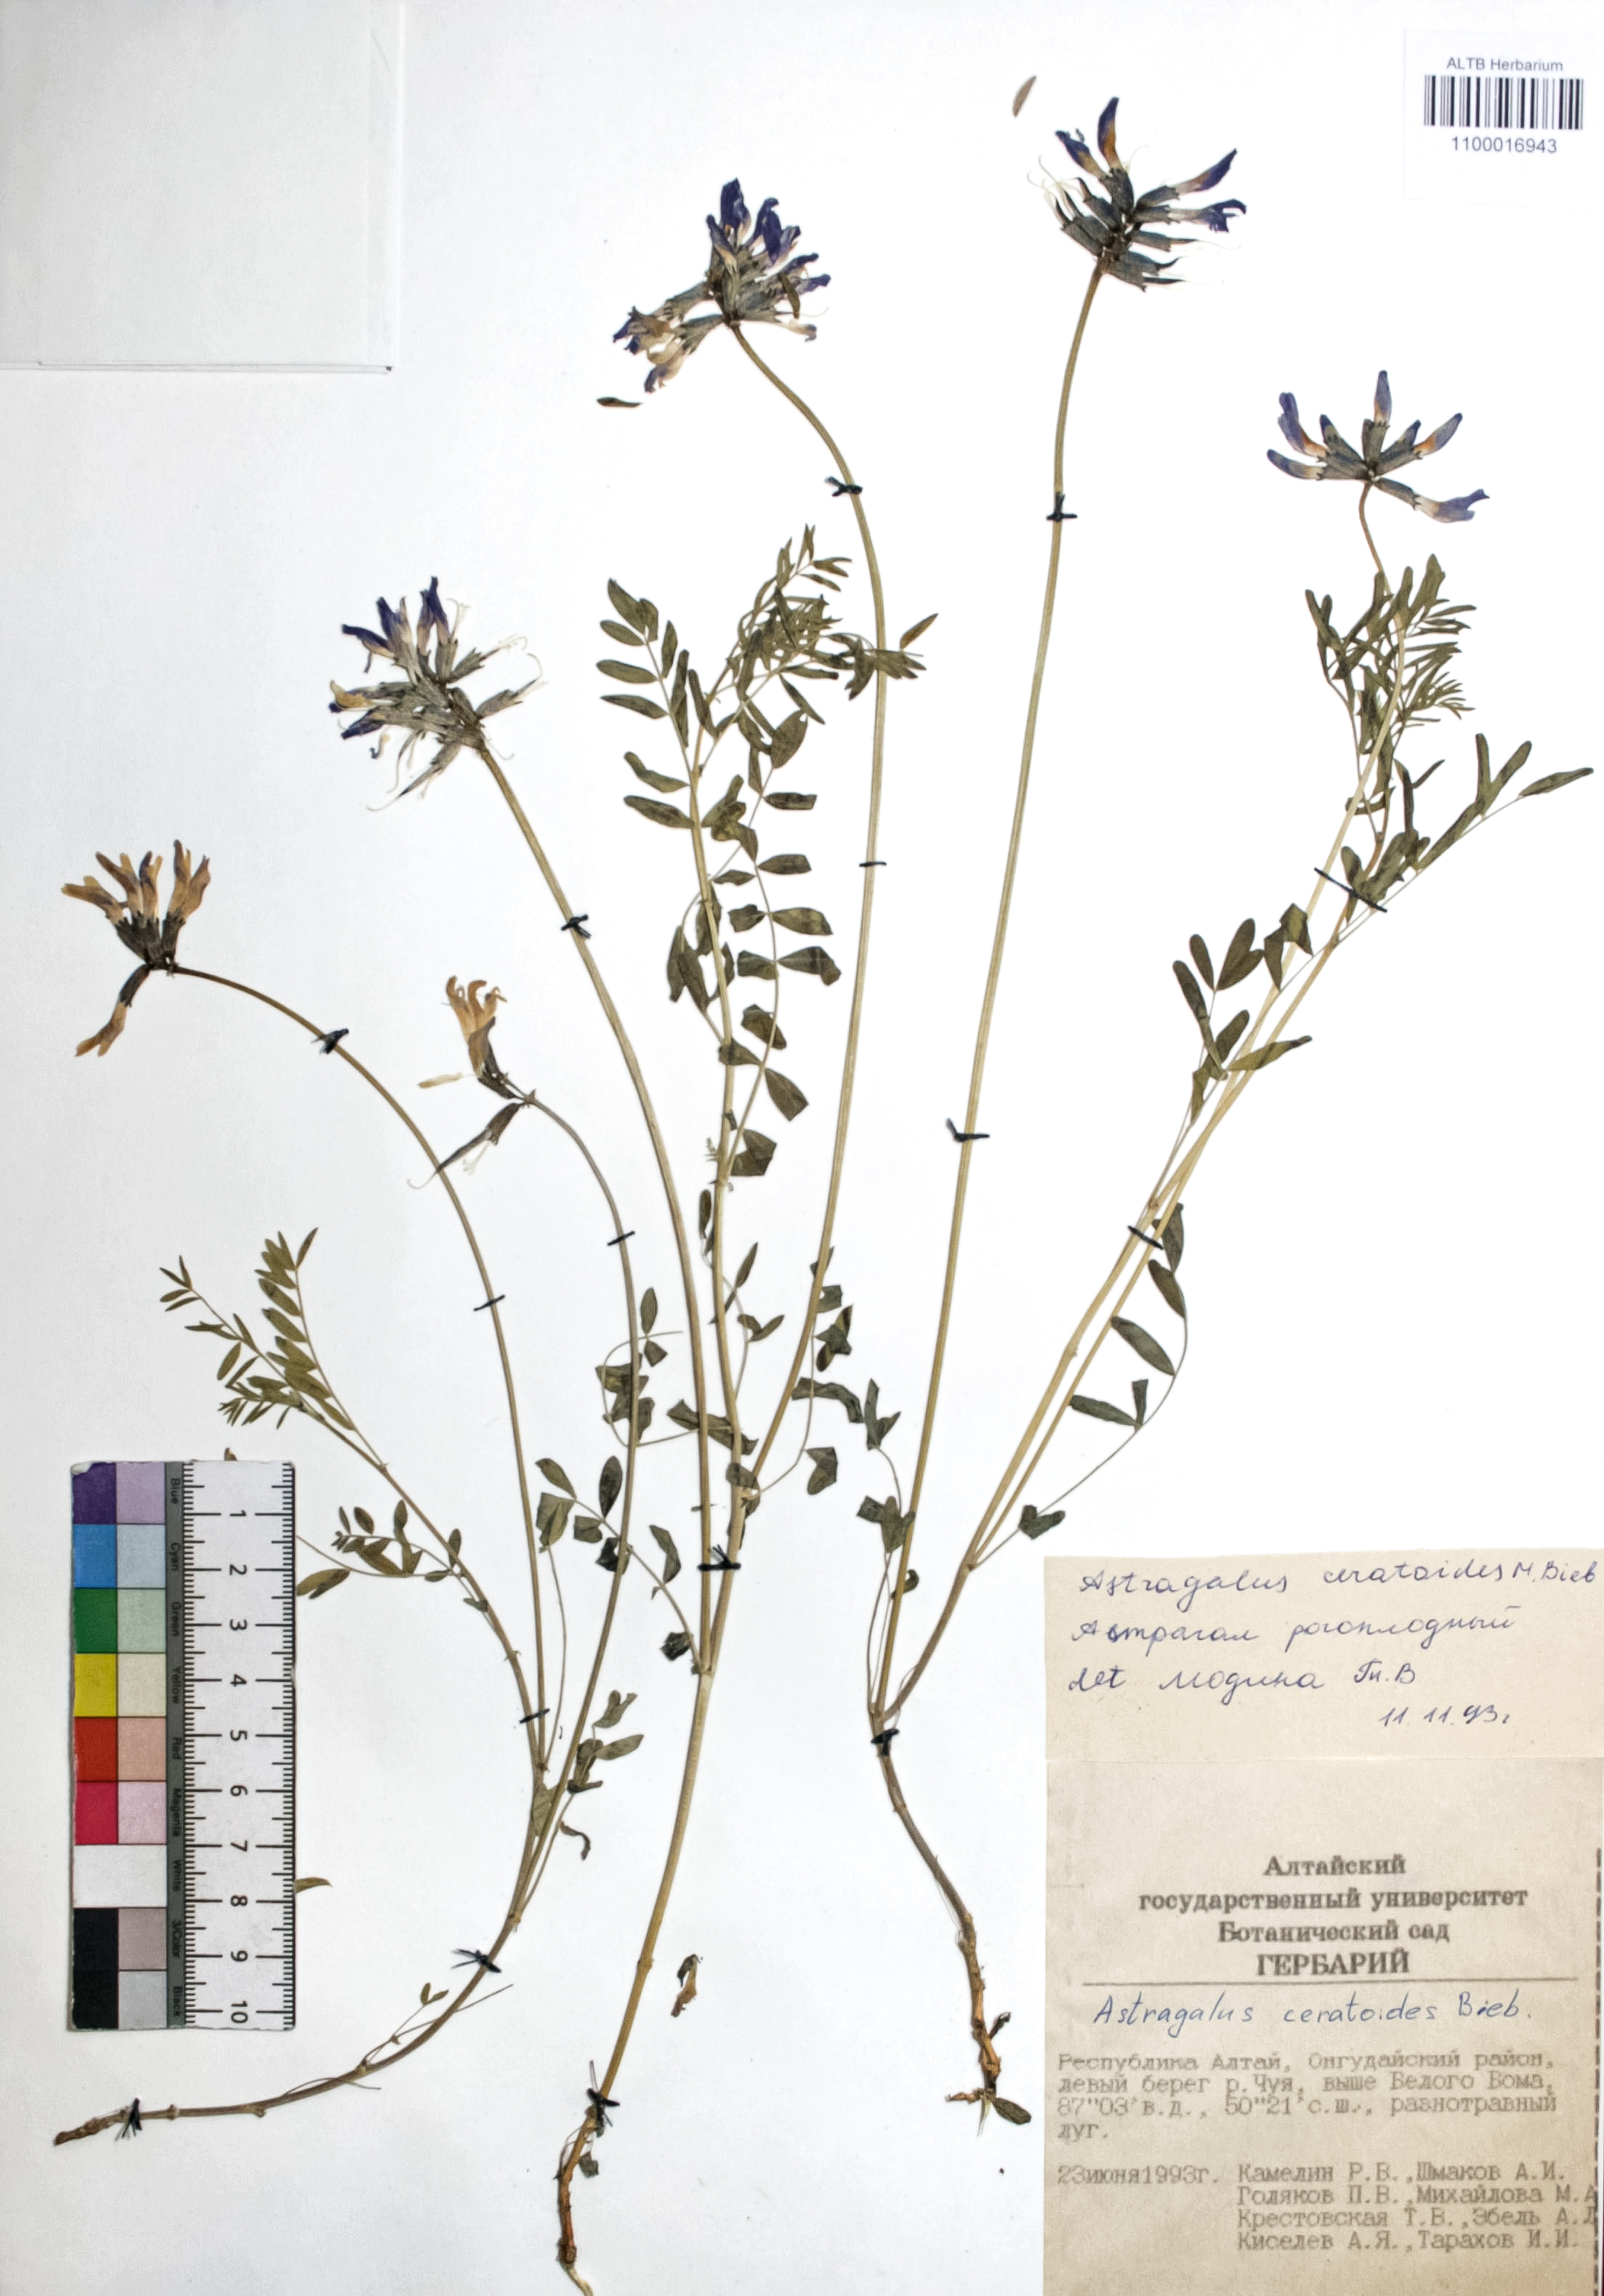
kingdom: Plantae
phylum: Tracheophyta
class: Magnoliopsida
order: Fabales
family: Fabaceae
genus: Astragalus
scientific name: Astragalus ceratoides
